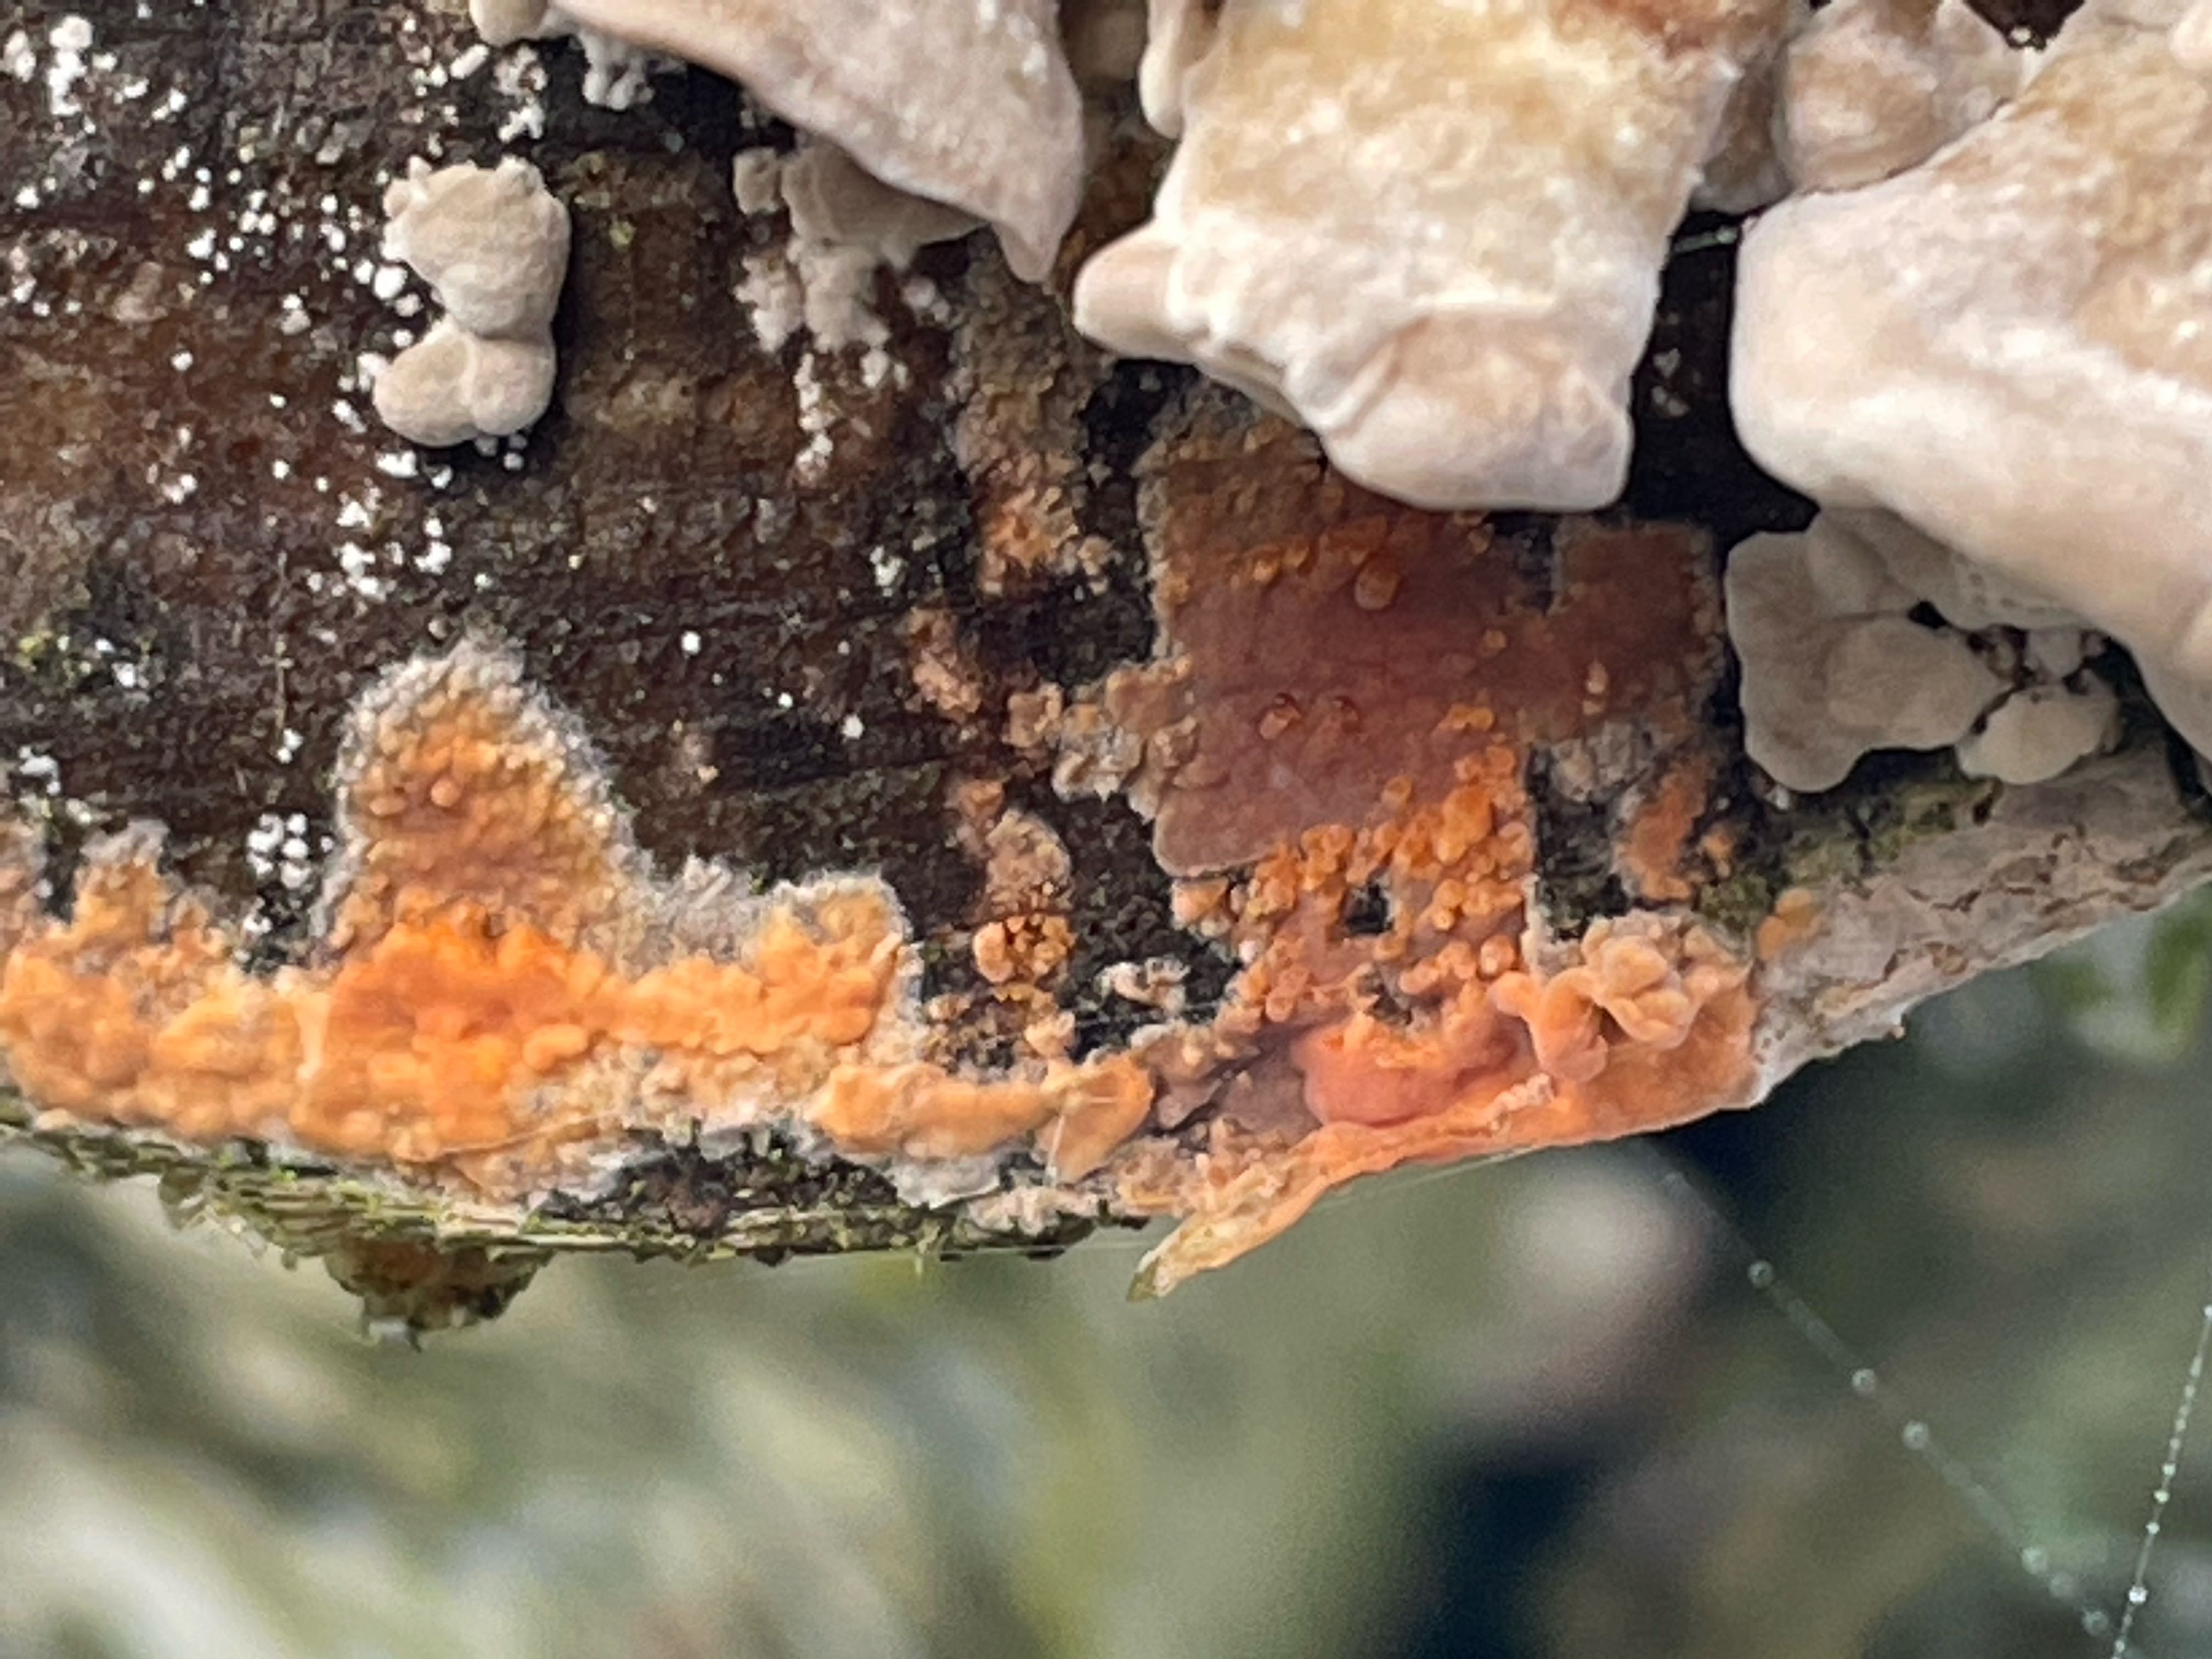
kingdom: Fungi
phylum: Basidiomycota
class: Agaricomycetes
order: Russulales
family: Peniophoraceae
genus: Peniophora
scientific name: Peniophora incarnata
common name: laksefarvet voksskind
